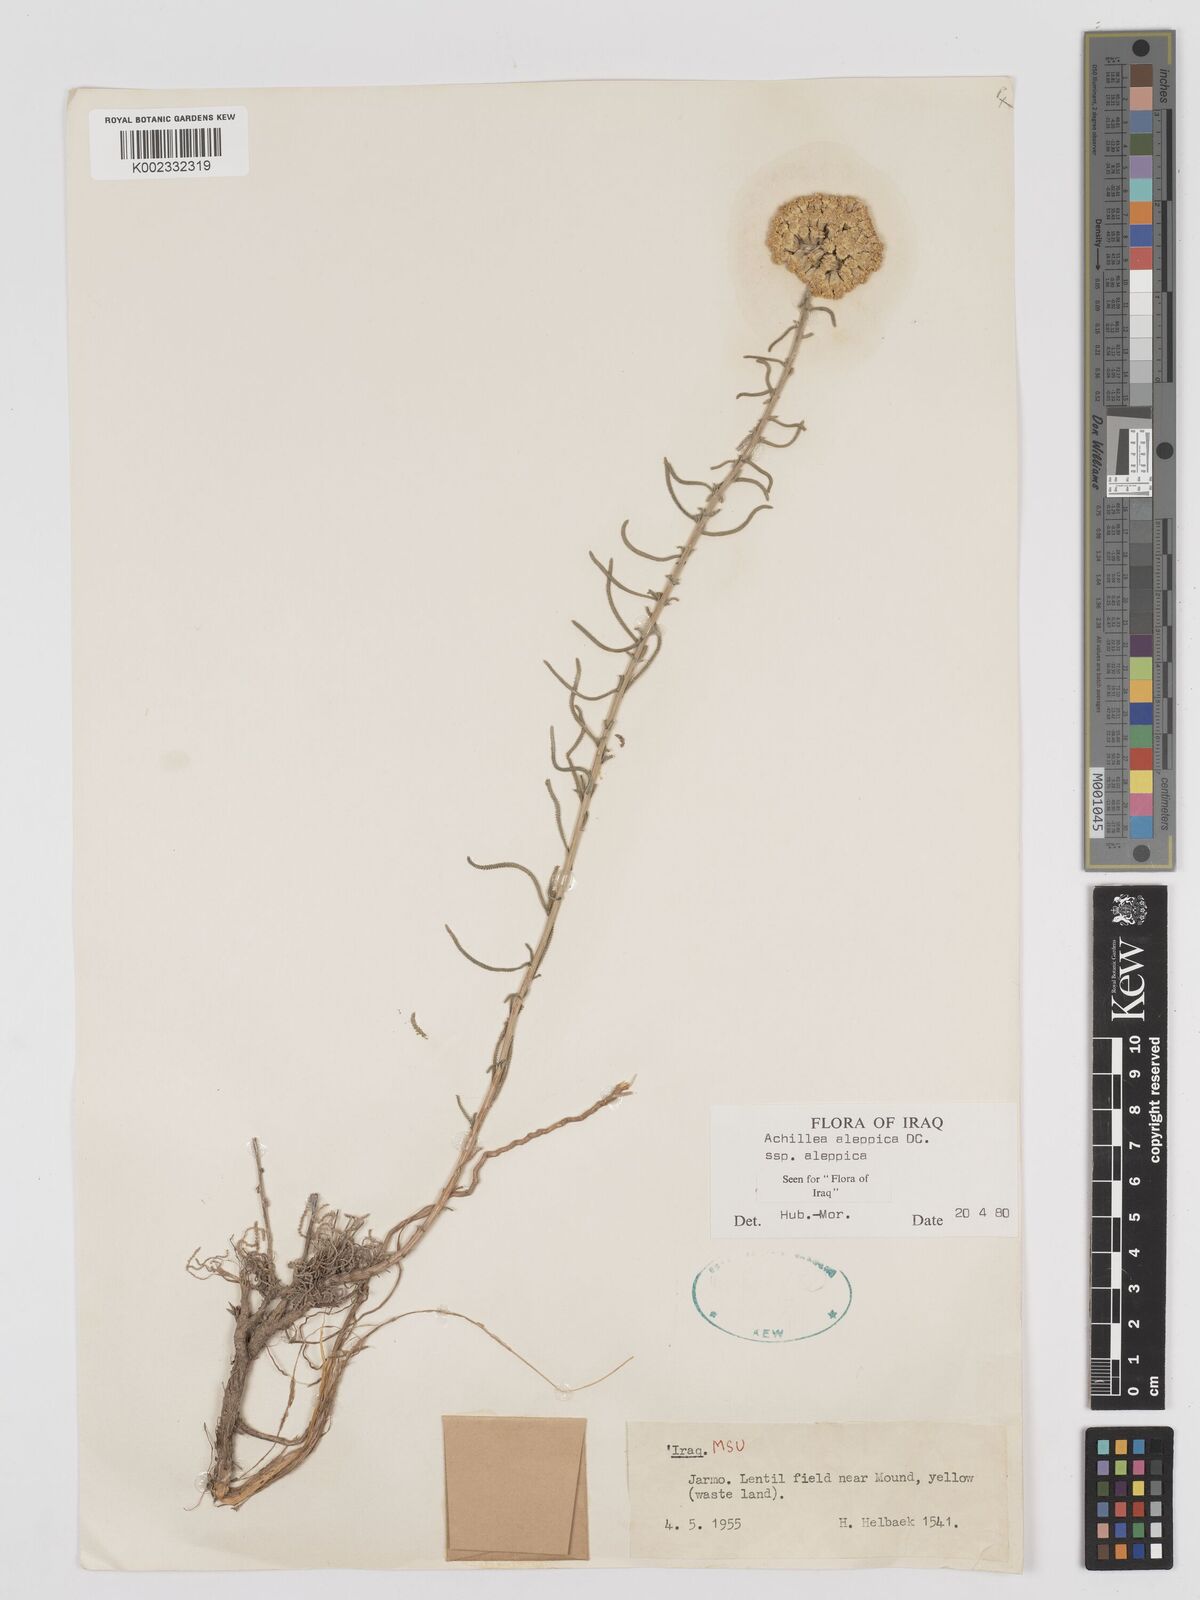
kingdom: Plantae
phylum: Tracheophyta
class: Magnoliopsida
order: Asterales
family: Asteraceae
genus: Achillea
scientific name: Achillea aleppica
